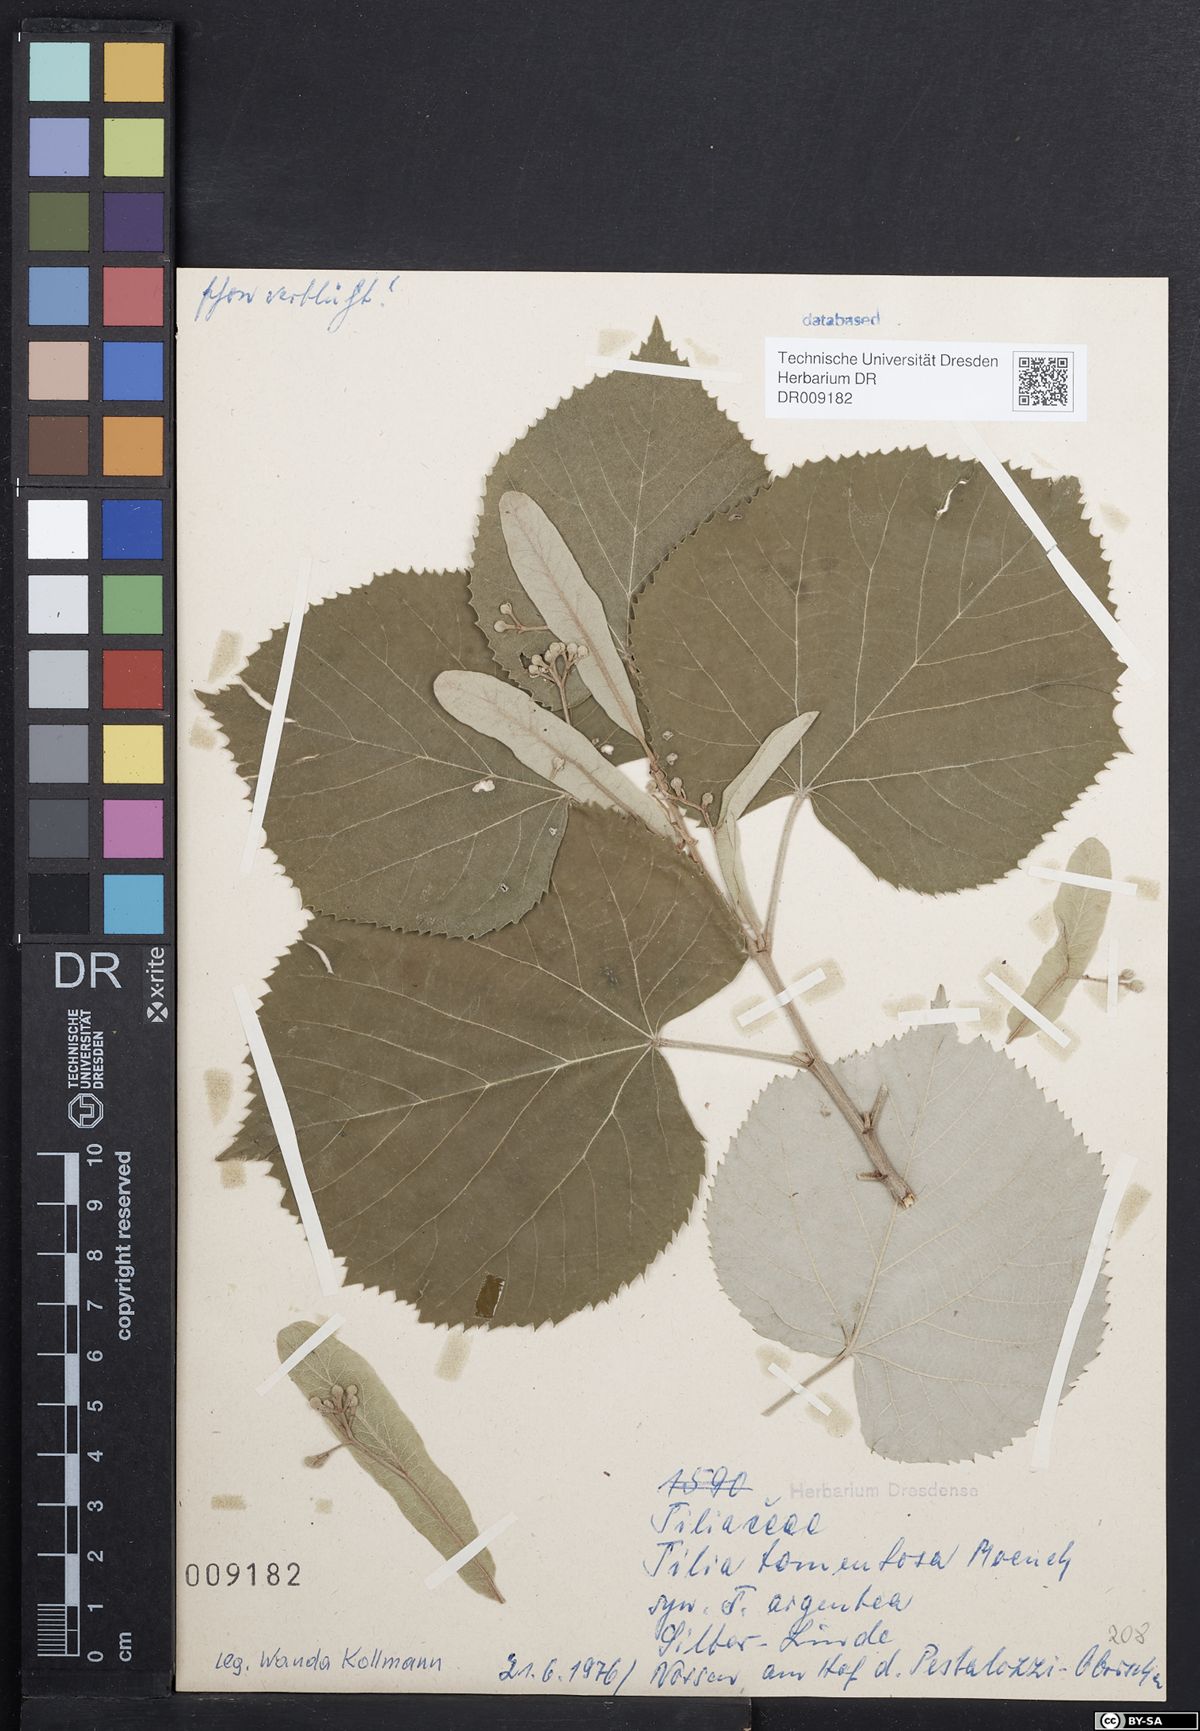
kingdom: Plantae
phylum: Tracheophyta
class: Magnoliopsida
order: Malvales
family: Malvaceae
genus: Tilia
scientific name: Tilia tomentosa
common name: Silver lime
